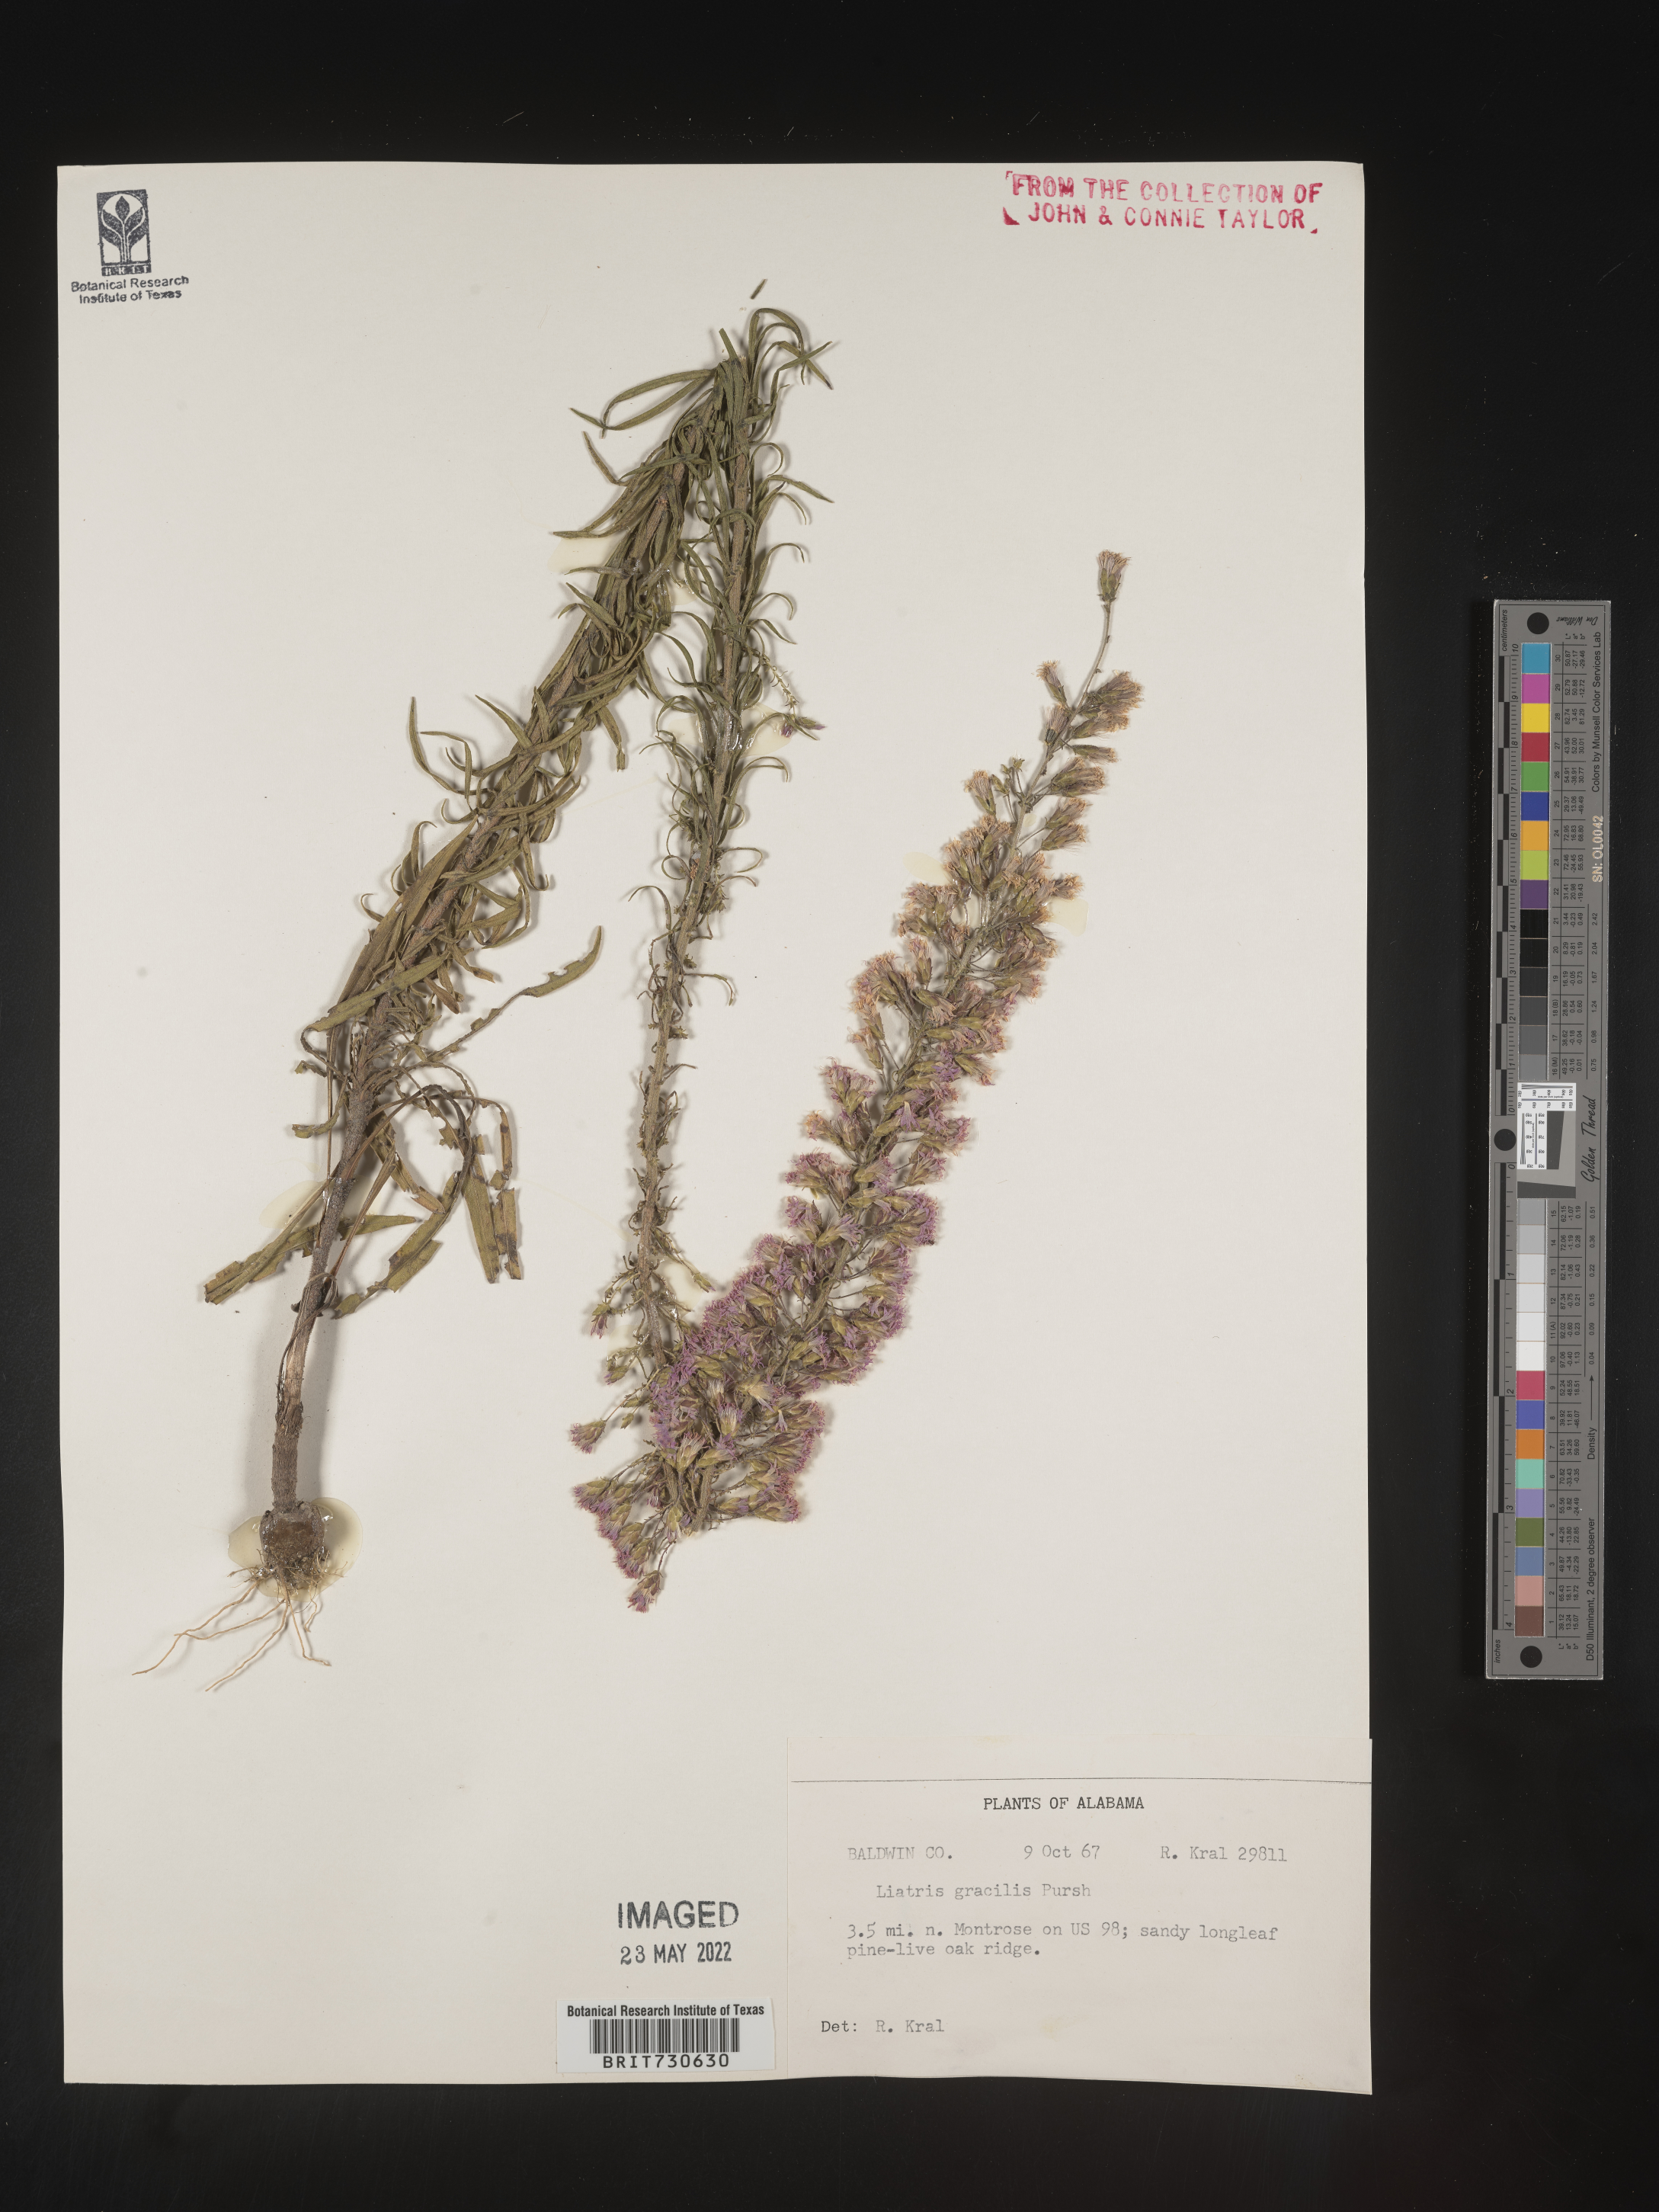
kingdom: Plantae
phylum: Tracheophyta
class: Magnoliopsida
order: Asterales
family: Asteraceae
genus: Liatris
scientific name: Liatris gracilis
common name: Slender gayfeather
